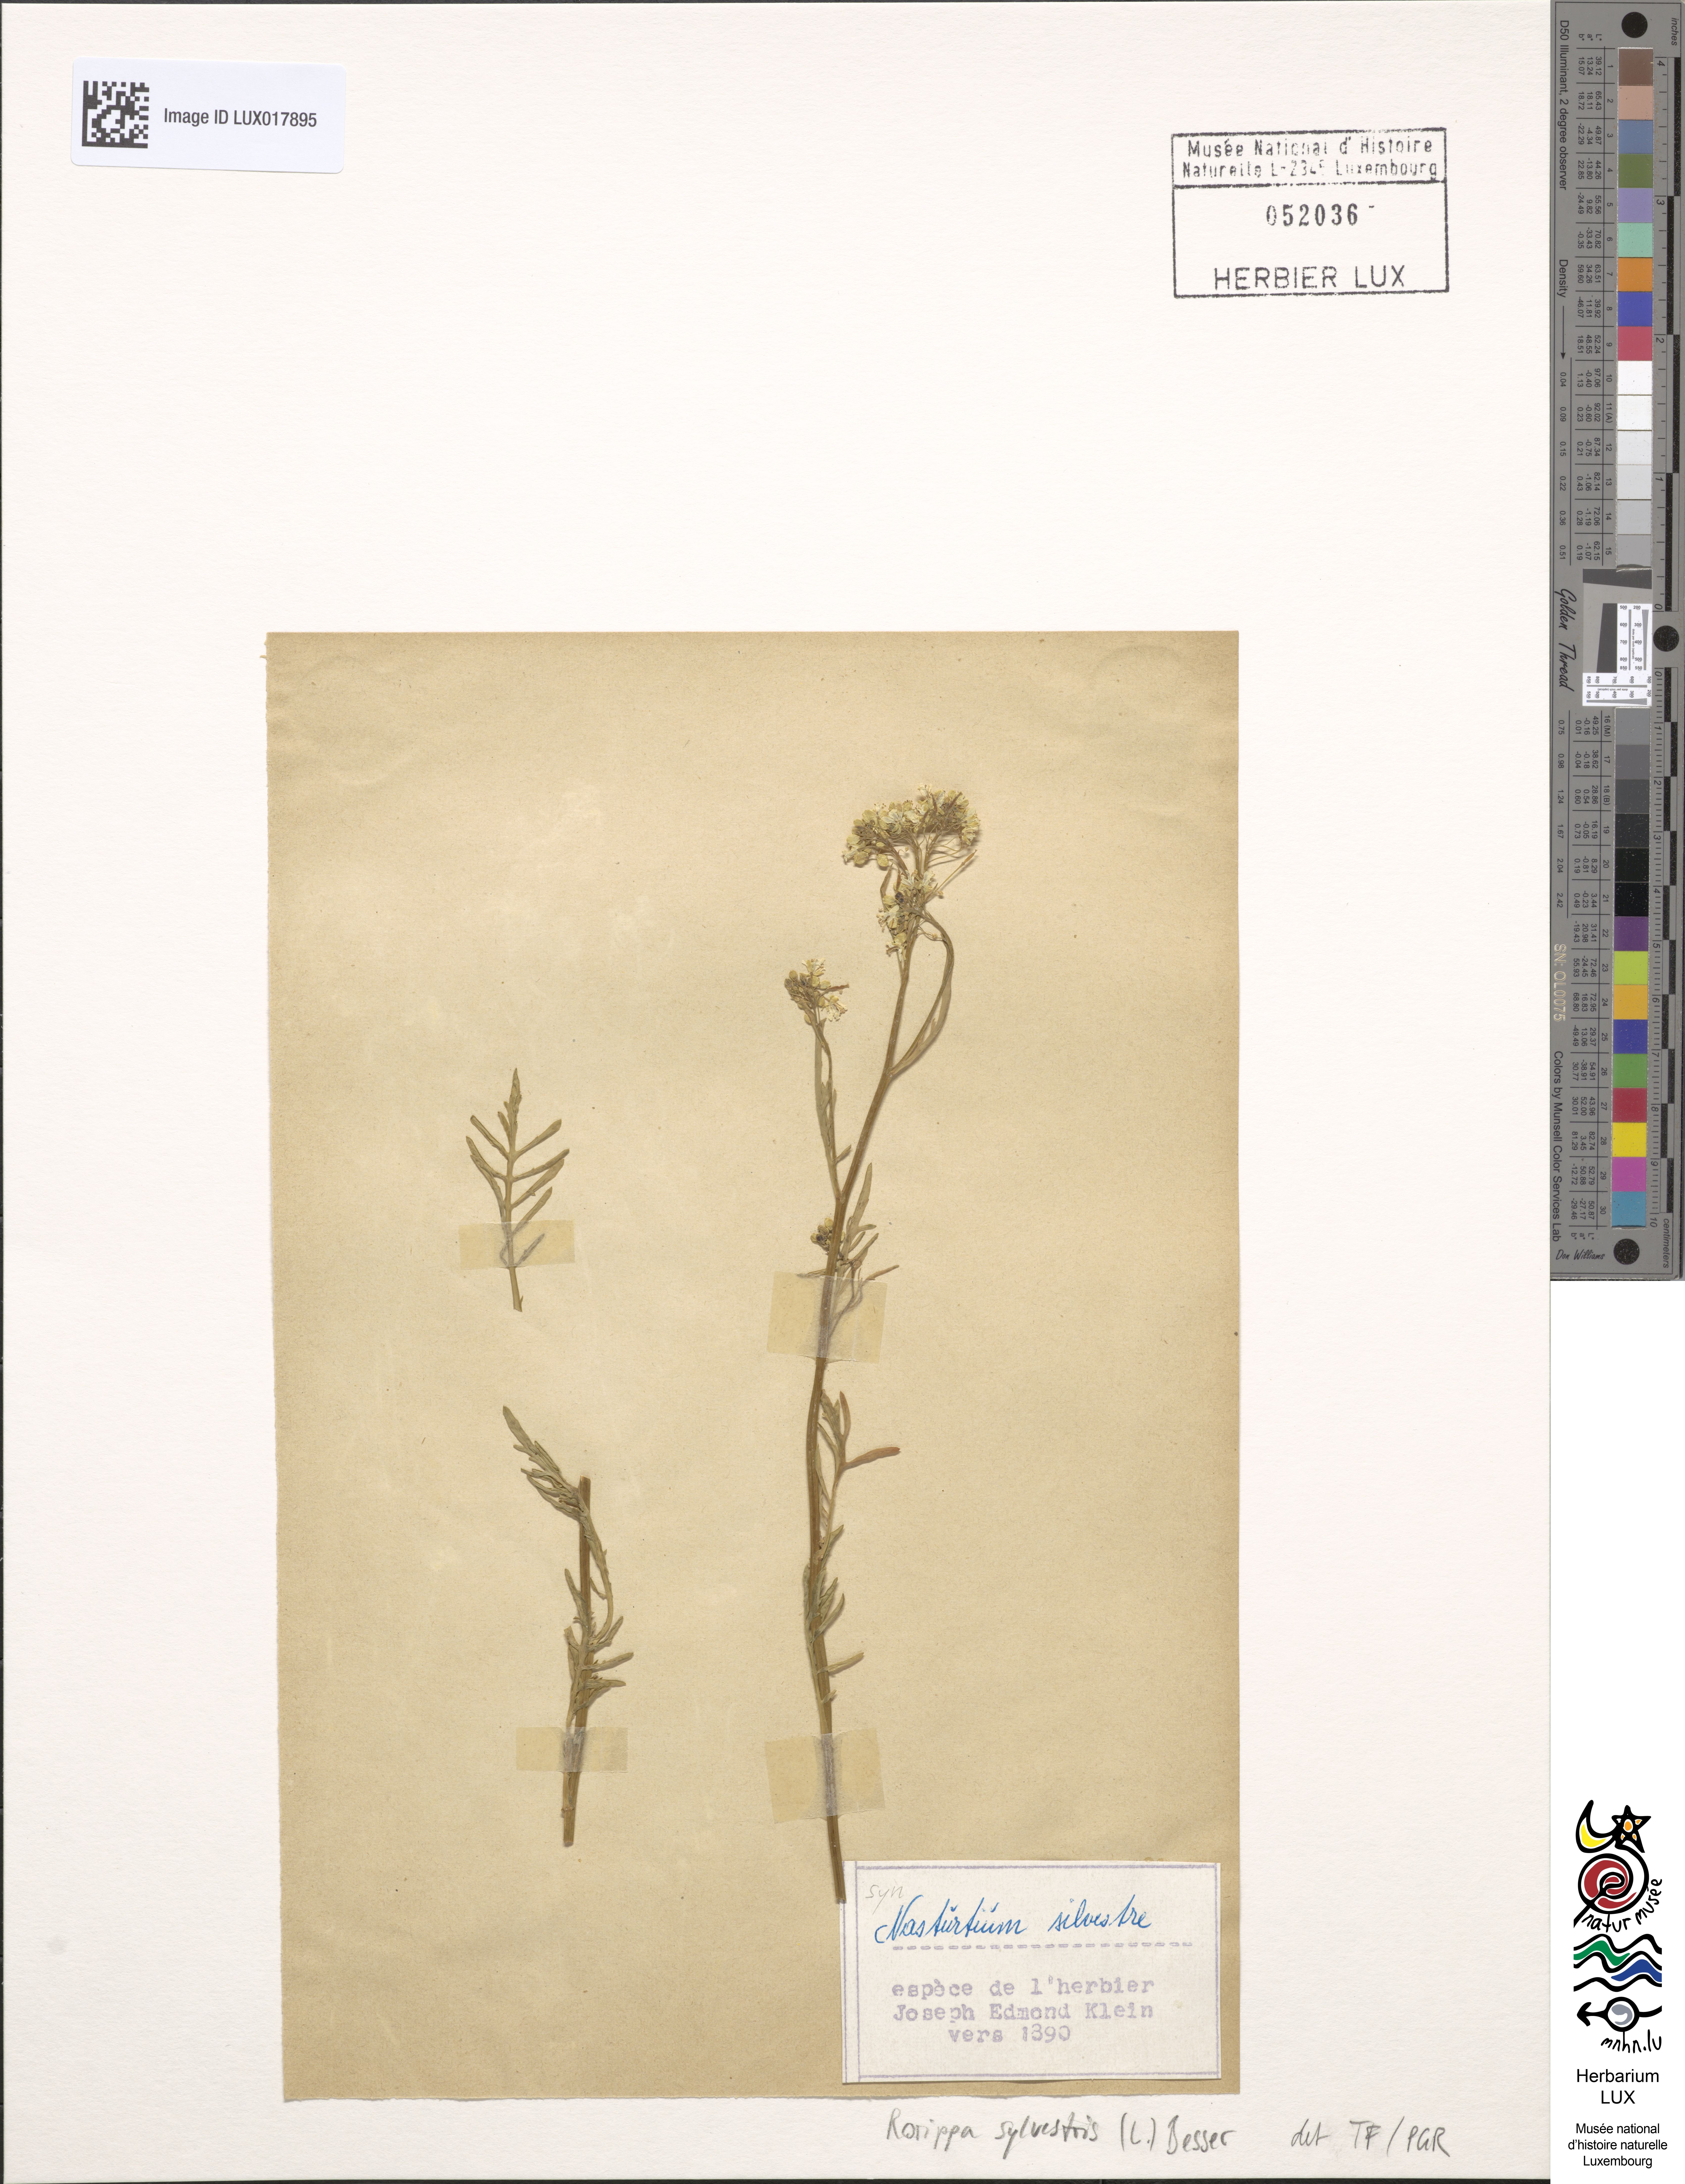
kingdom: Plantae
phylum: Tracheophyta
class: Magnoliopsida
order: Brassicales
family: Brassicaceae
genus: Rorippa
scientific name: Rorippa sylvestris
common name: Creeping yellowcress
